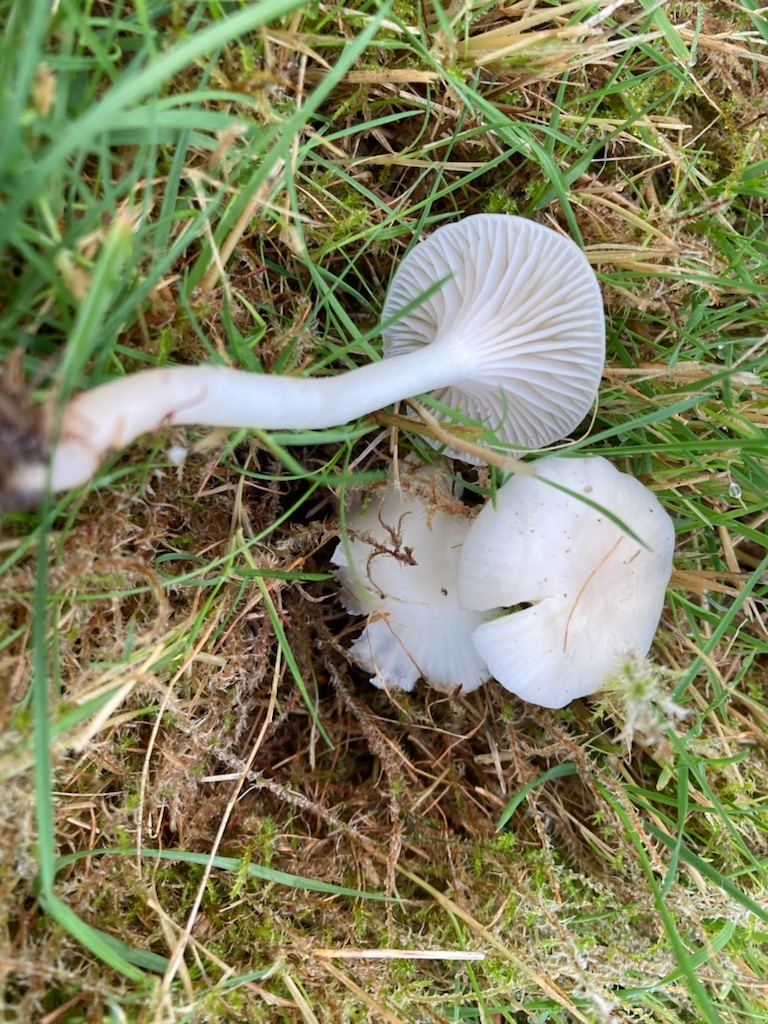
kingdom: Fungi
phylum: Basidiomycota
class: Agaricomycetes
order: Agaricales
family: Hygrophoraceae
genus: Cuphophyllus
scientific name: Cuphophyllus virgineus
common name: snehvid vokshat
